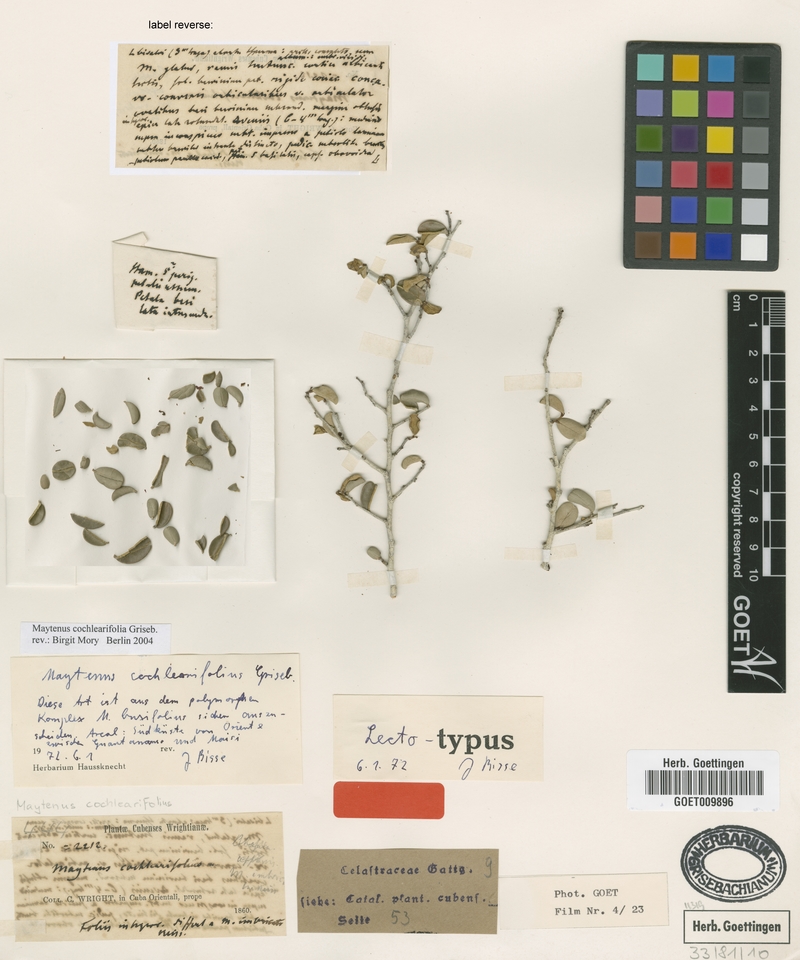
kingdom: Plantae
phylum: Tracheophyta
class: Magnoliopsida
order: Celastrales
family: Celastraceae
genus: Monteverdia
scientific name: Monteverdia buxifolia
